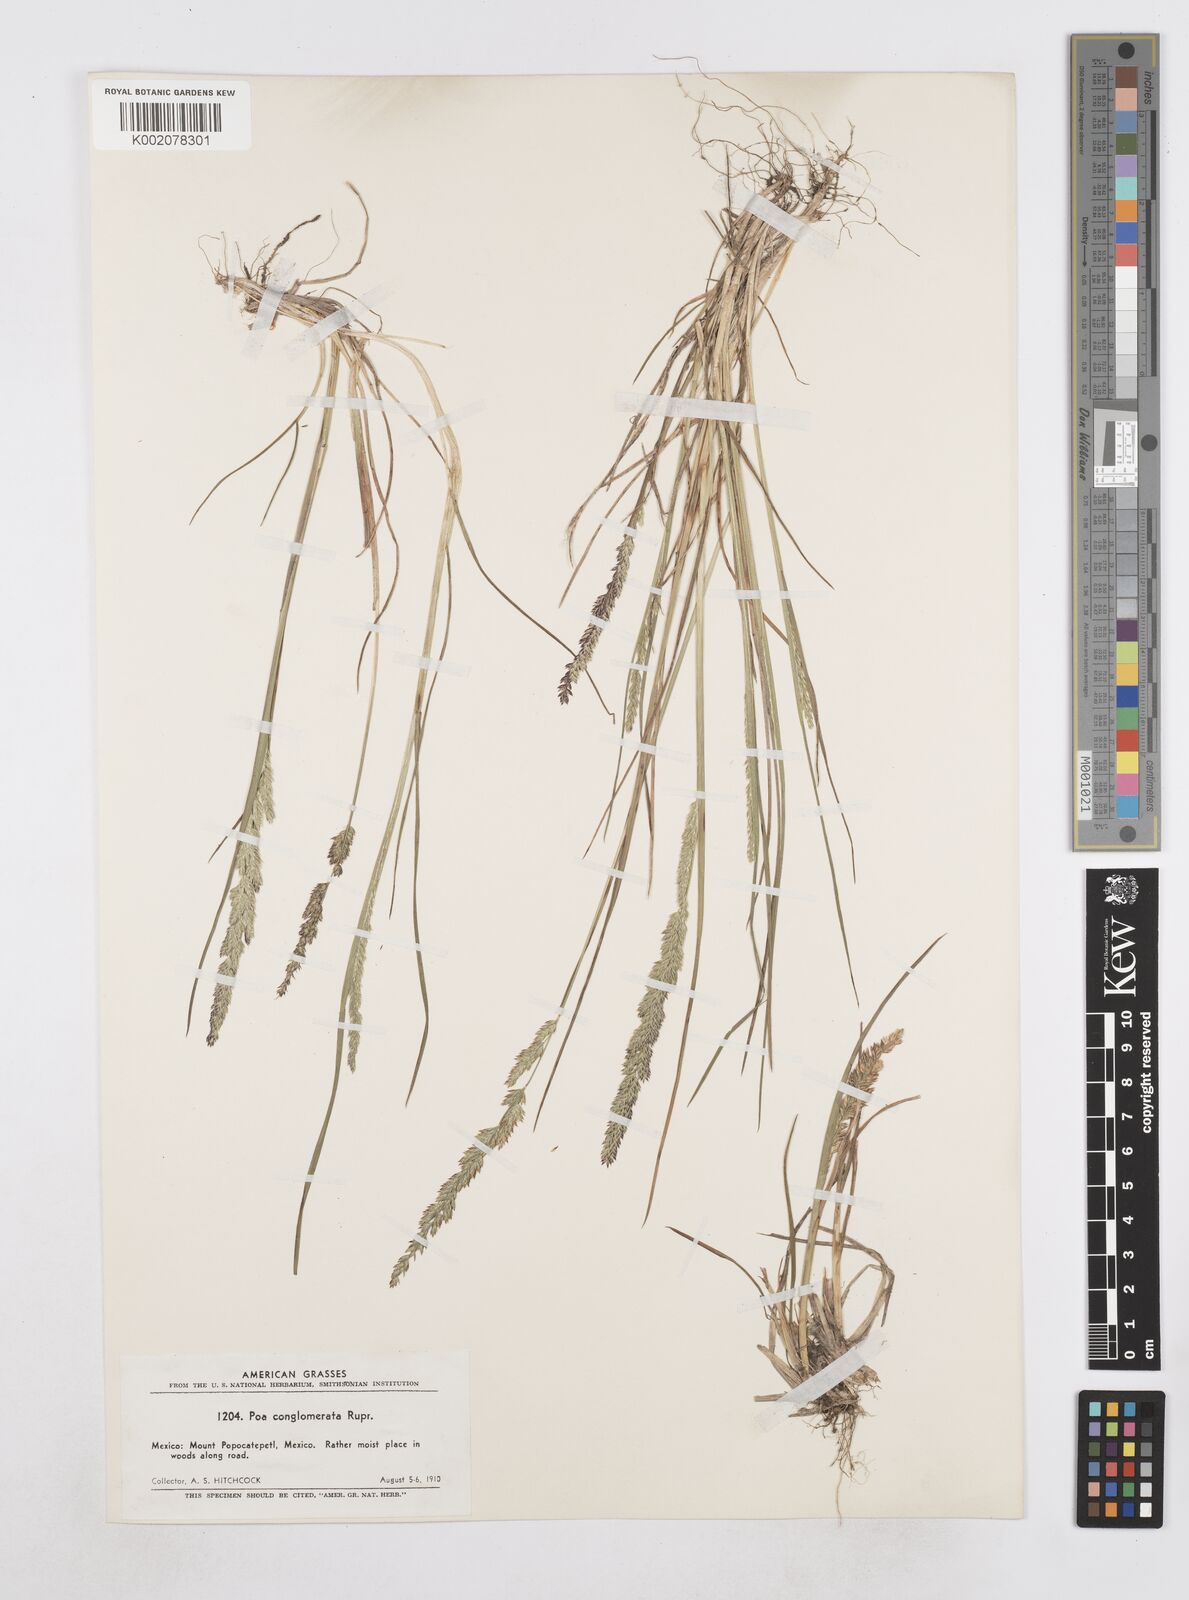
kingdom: Plantae
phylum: Tracheophyta
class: Liliopsida
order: Poales
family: Poaceae
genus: Poa
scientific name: Poa scaberula
